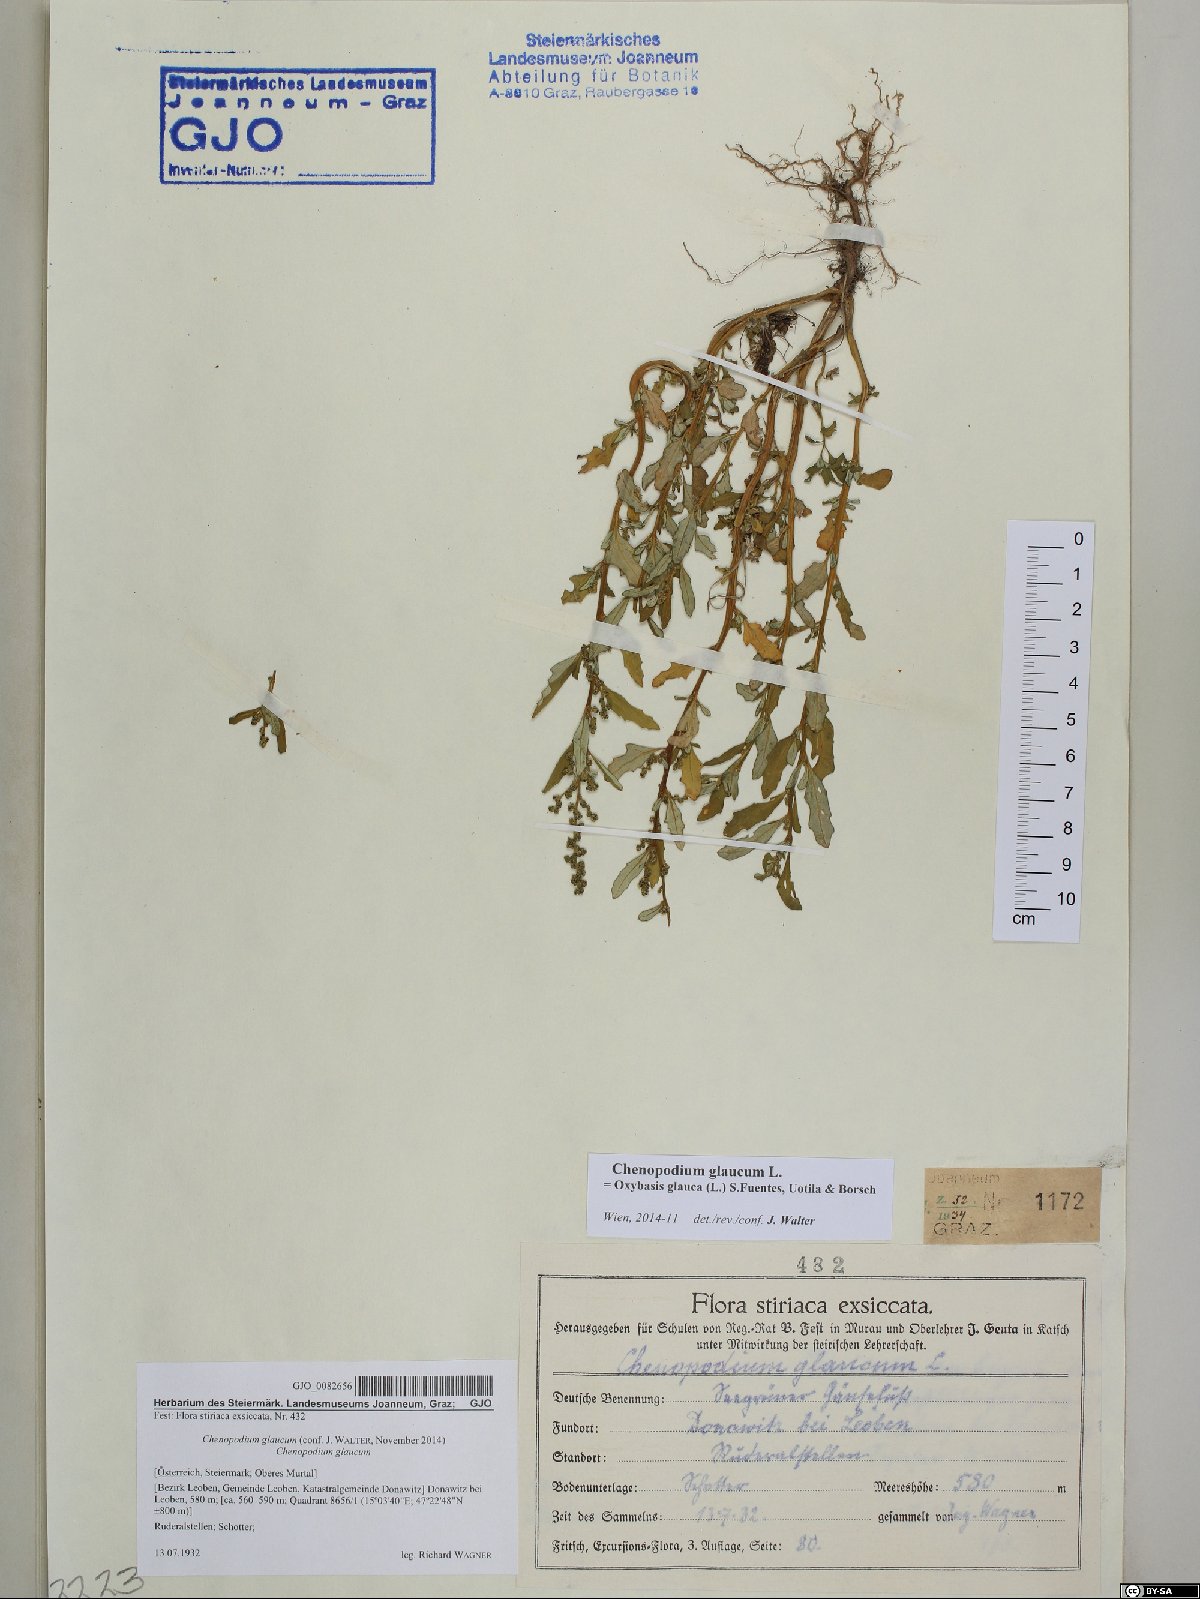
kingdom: Plantae
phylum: Tracheophyta
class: Magnoliopsida
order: Caryophyllales
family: Amaranthaceae
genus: Oxybasis
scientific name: Oxybasis glauca
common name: Glaucous goosefoot
